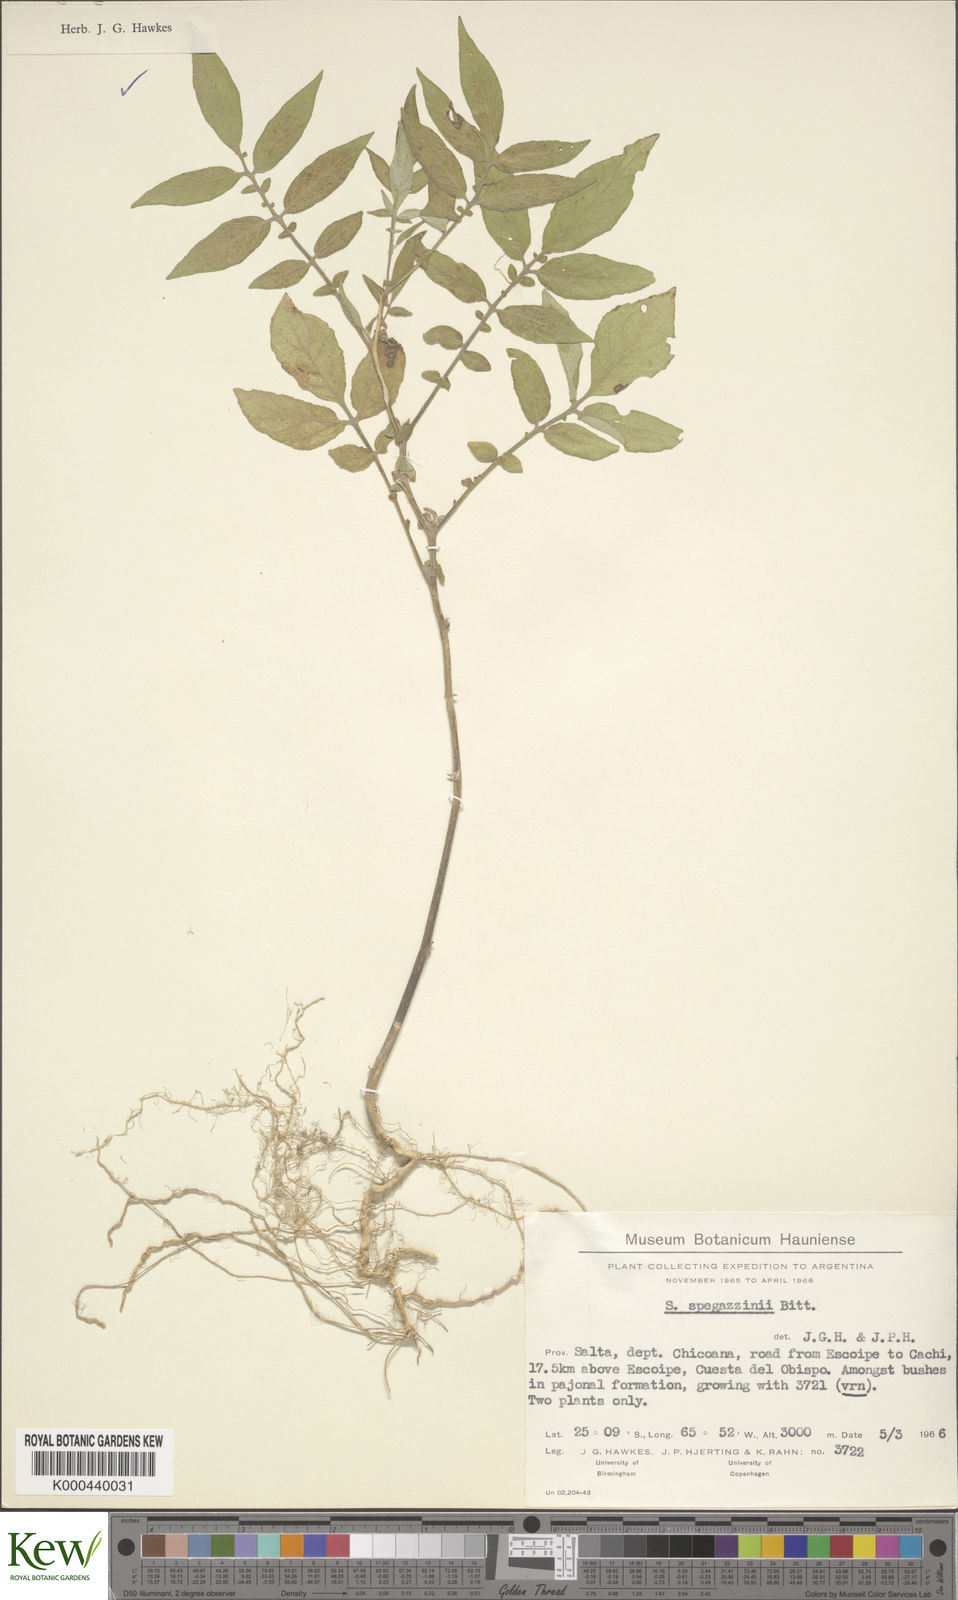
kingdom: Plantae
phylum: Tracheophyta
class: Magnoliopsida
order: Solanales
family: Solanaceae
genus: Solanum
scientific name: Solanum brevicaule
